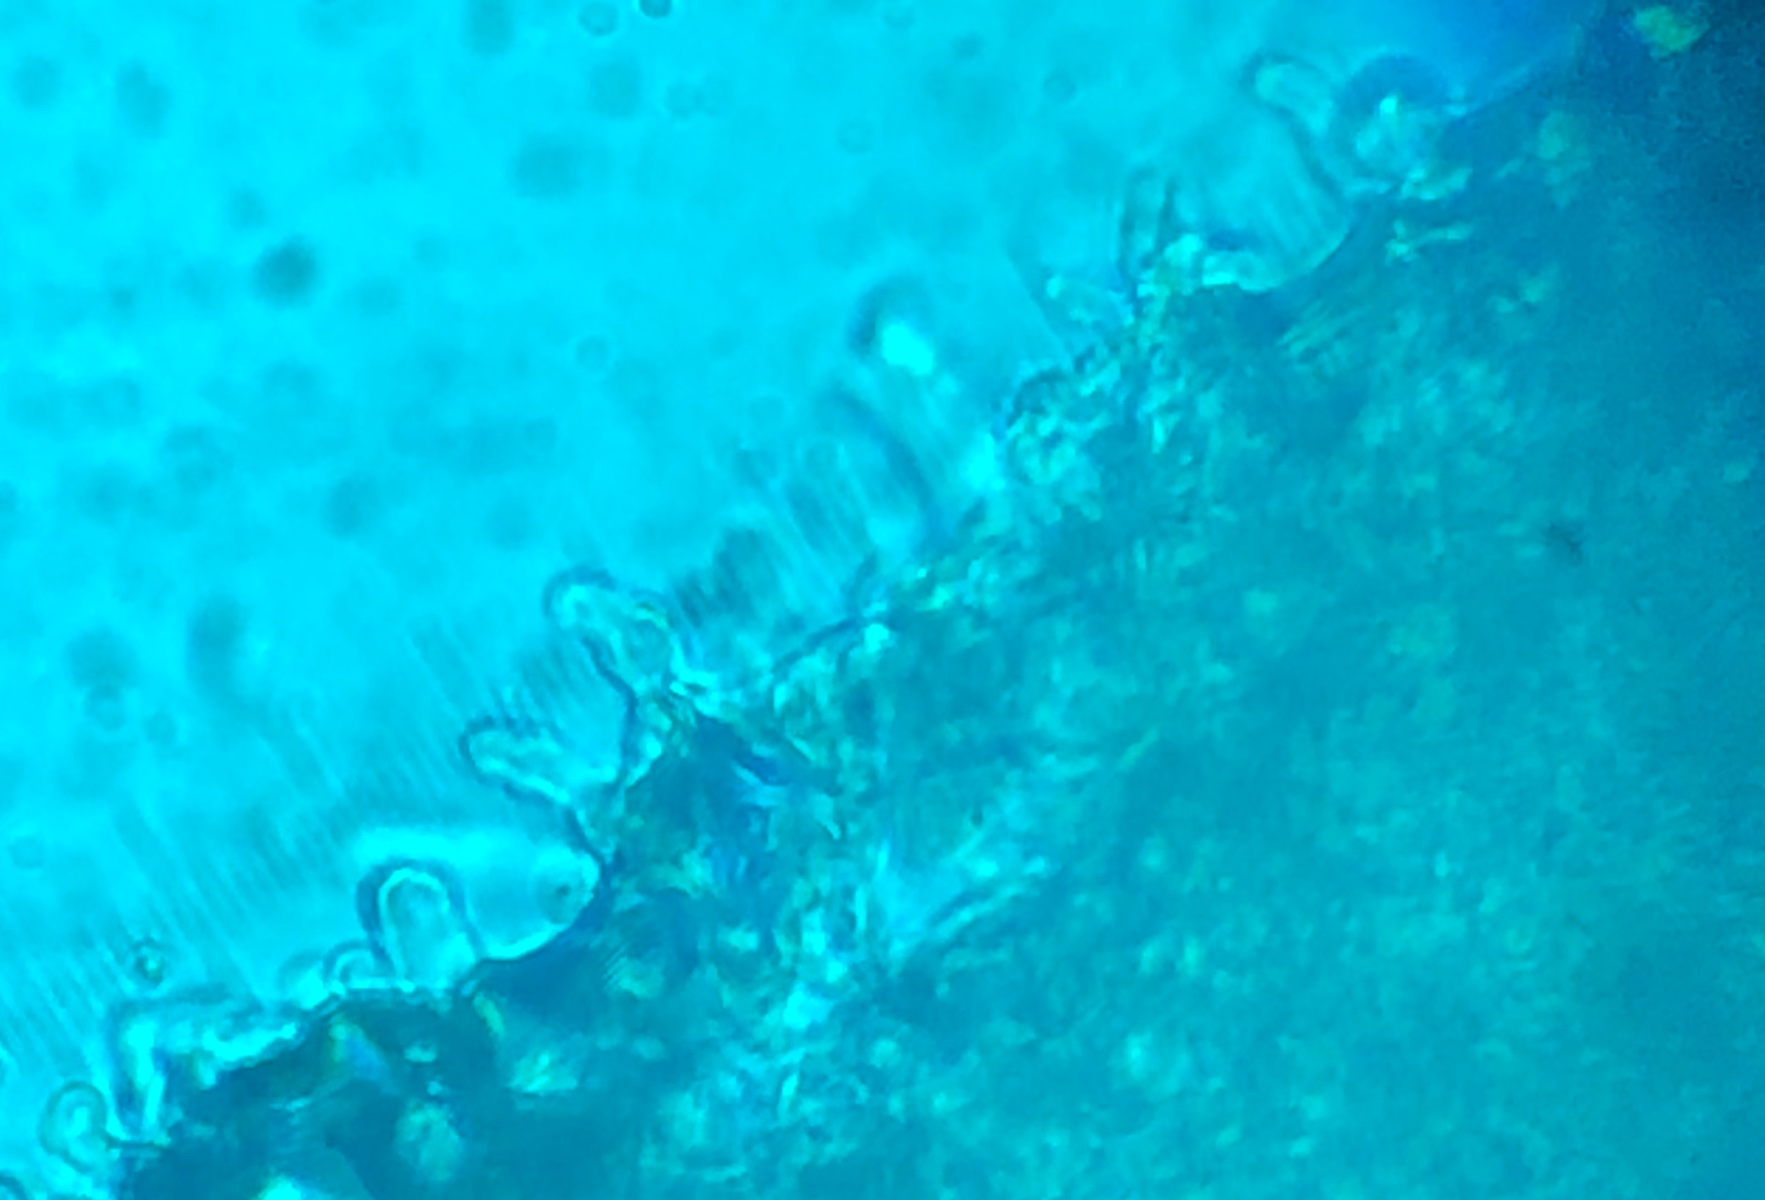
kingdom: Fungi
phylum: Basidiomycota
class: Agaricomycetes
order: Agaricales
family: Mycenaceae
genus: Mycena
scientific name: Mycena
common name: huesvamp
